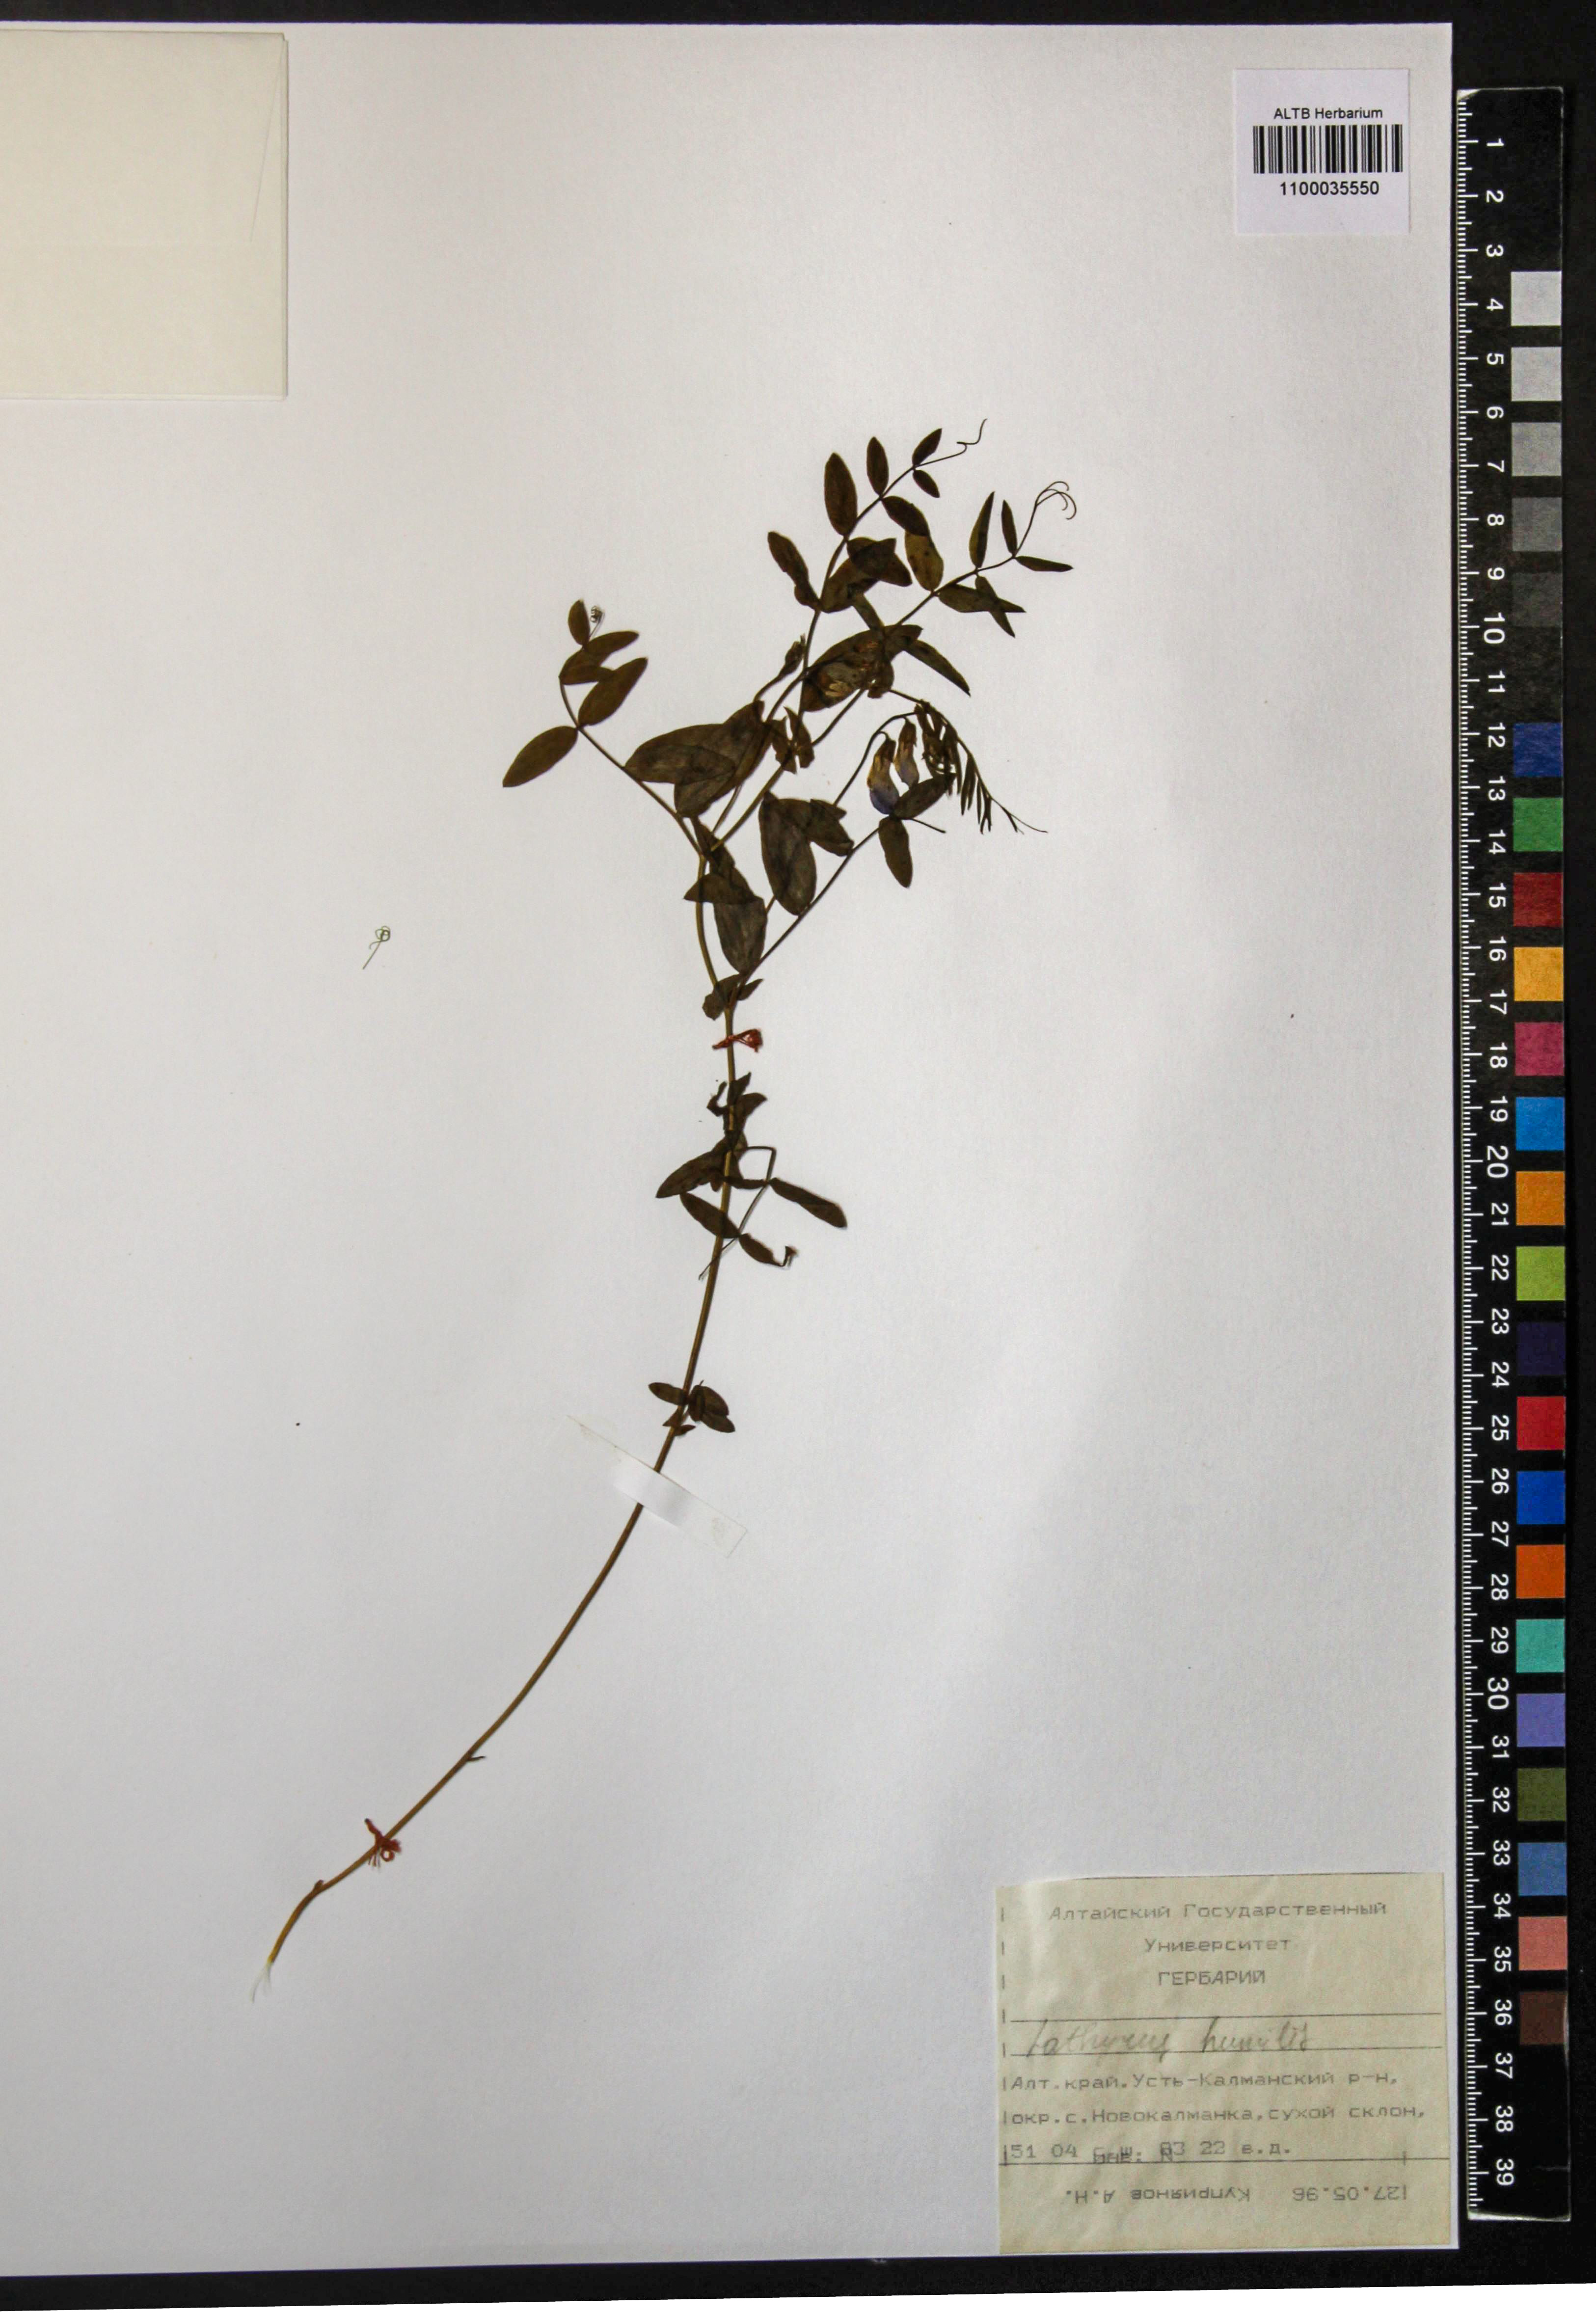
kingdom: Plantae
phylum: Tracheophyta
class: Magnoliopsida
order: Fabales
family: Fabaceae
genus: Lathyrus
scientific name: Lathyrus humilis
